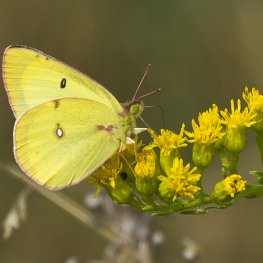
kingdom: Animalia
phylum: Arthropoda
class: Insecta
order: Lepidoptera
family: Pieridae
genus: Colias
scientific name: Colias philodice
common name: Clouded Sulphur
